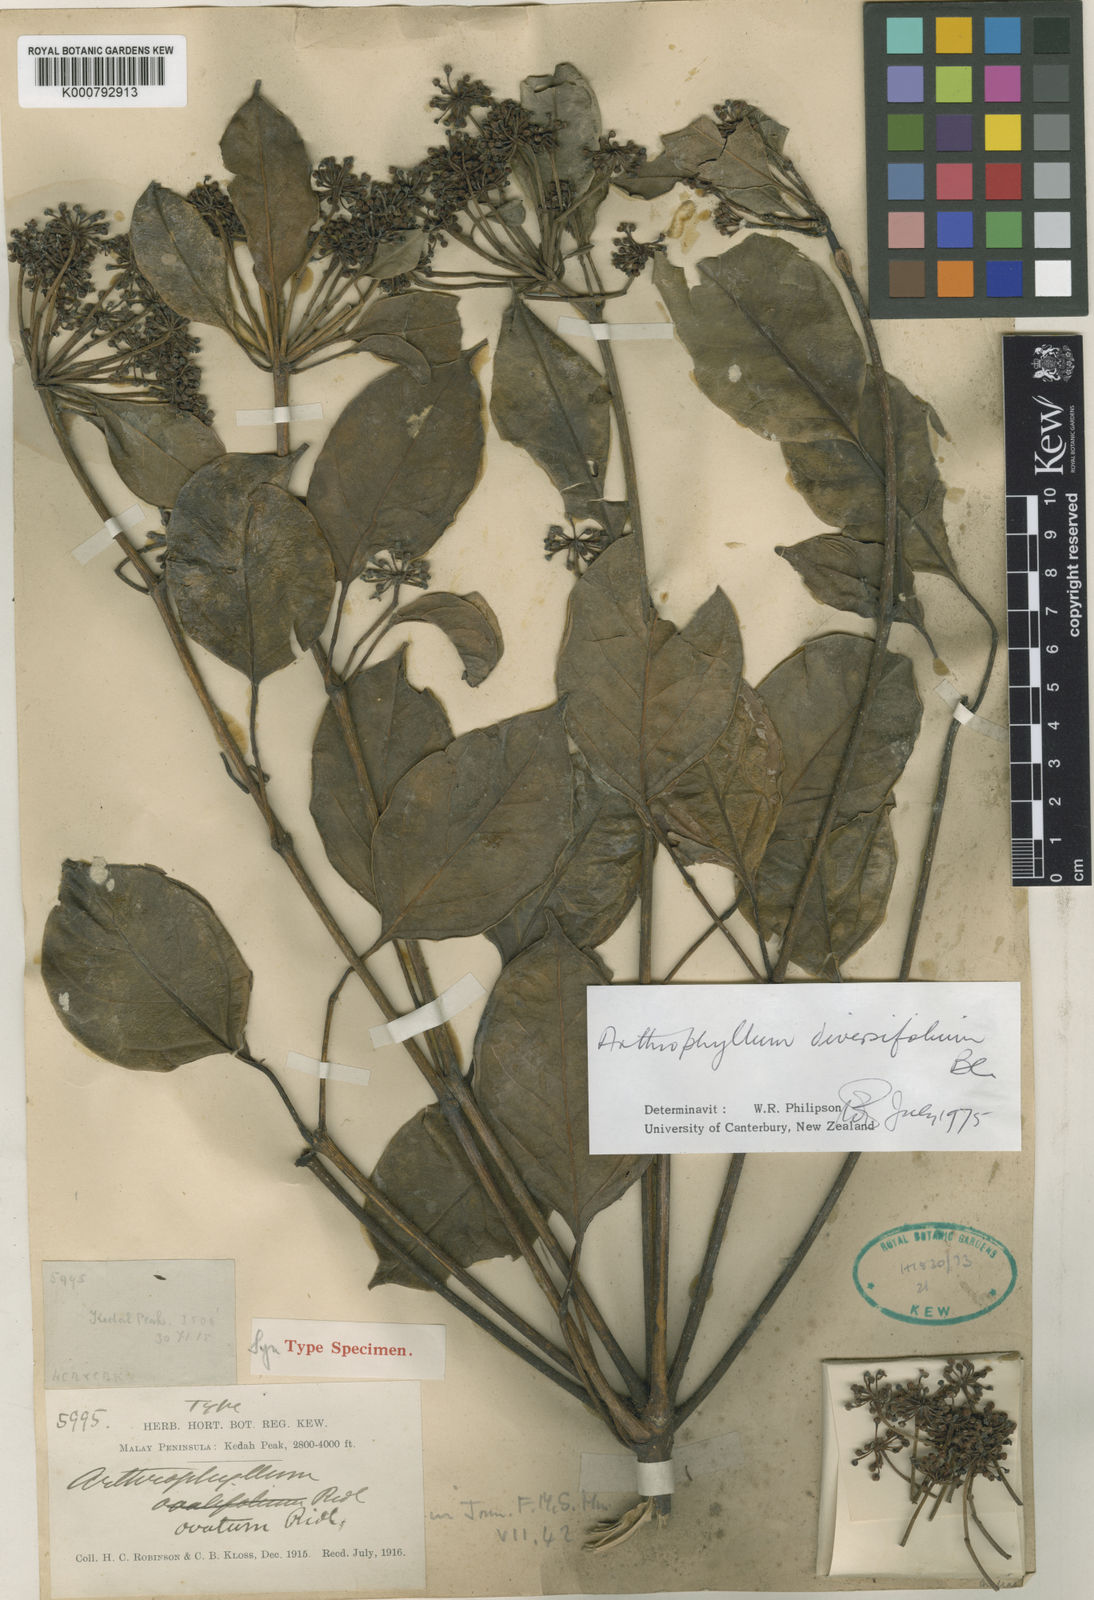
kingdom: Plantae
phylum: Tracheophyta
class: Magnoliopsida
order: Apiales
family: Araliaceae
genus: Polyscias
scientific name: Polyscias diversifolia
